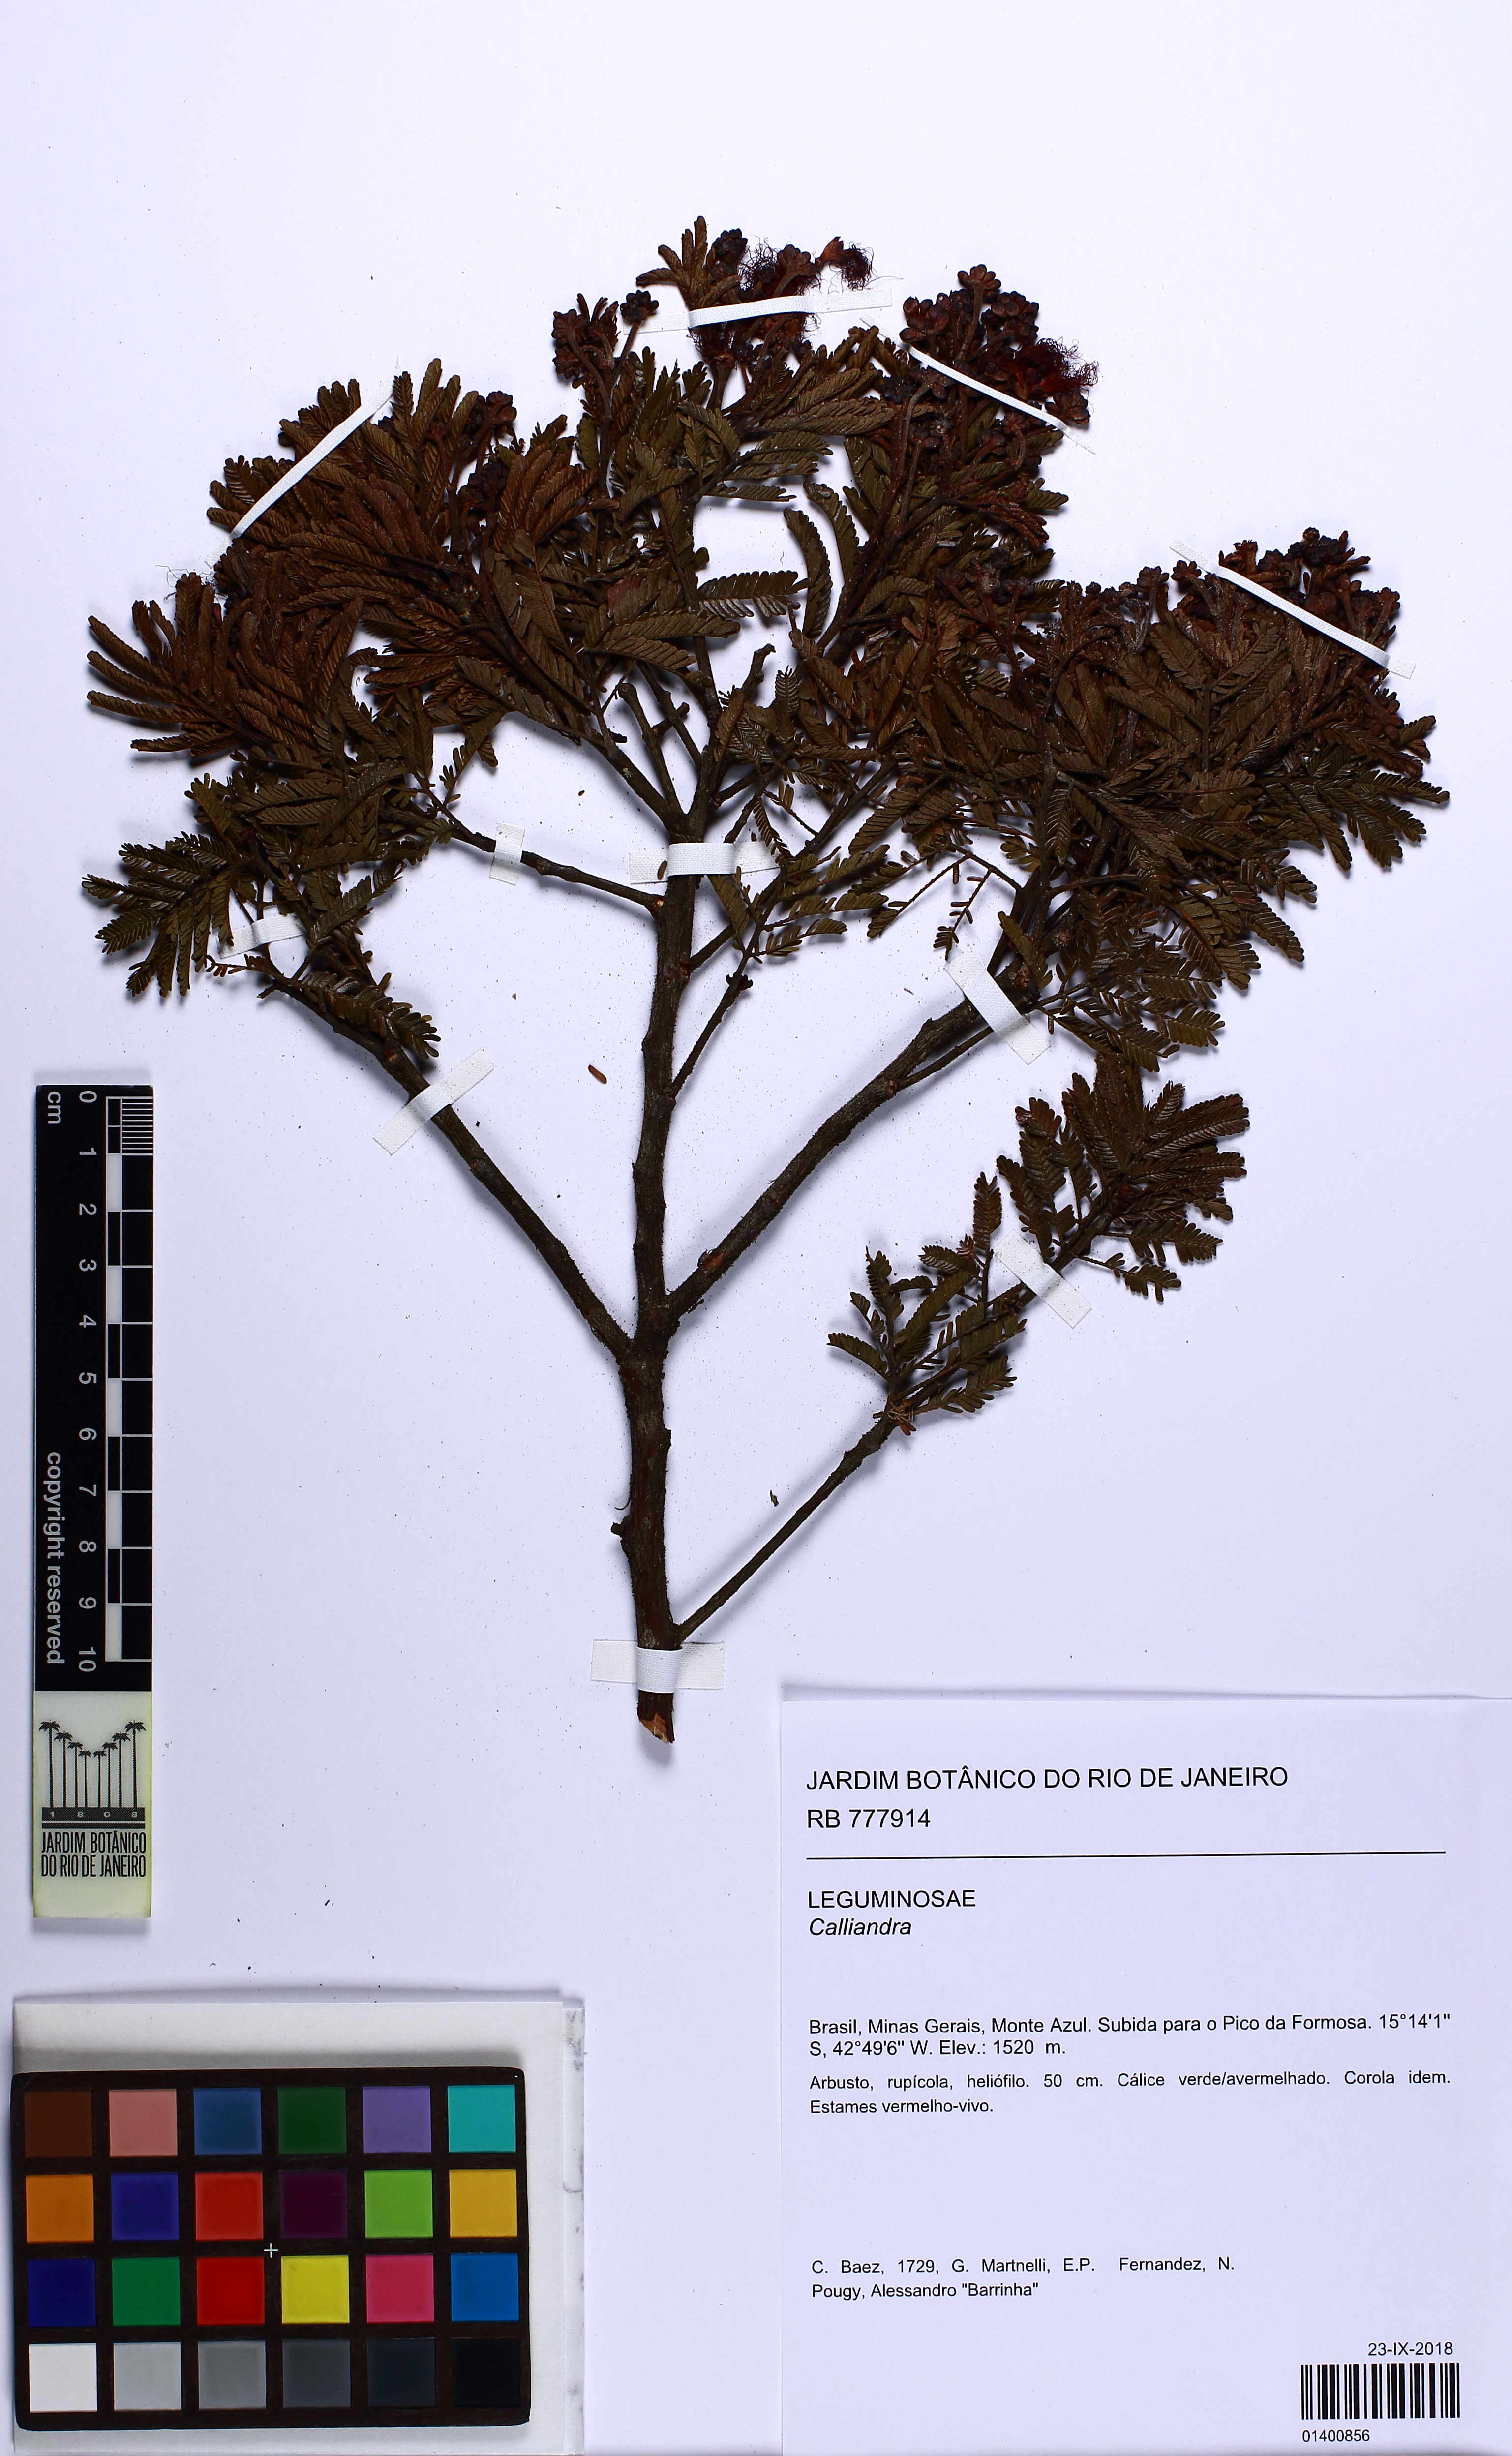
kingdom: Plantae
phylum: Tracheophyta
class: Magnoliopsida
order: Fabales
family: Fabaceae
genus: Calliandra
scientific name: Calliandra
